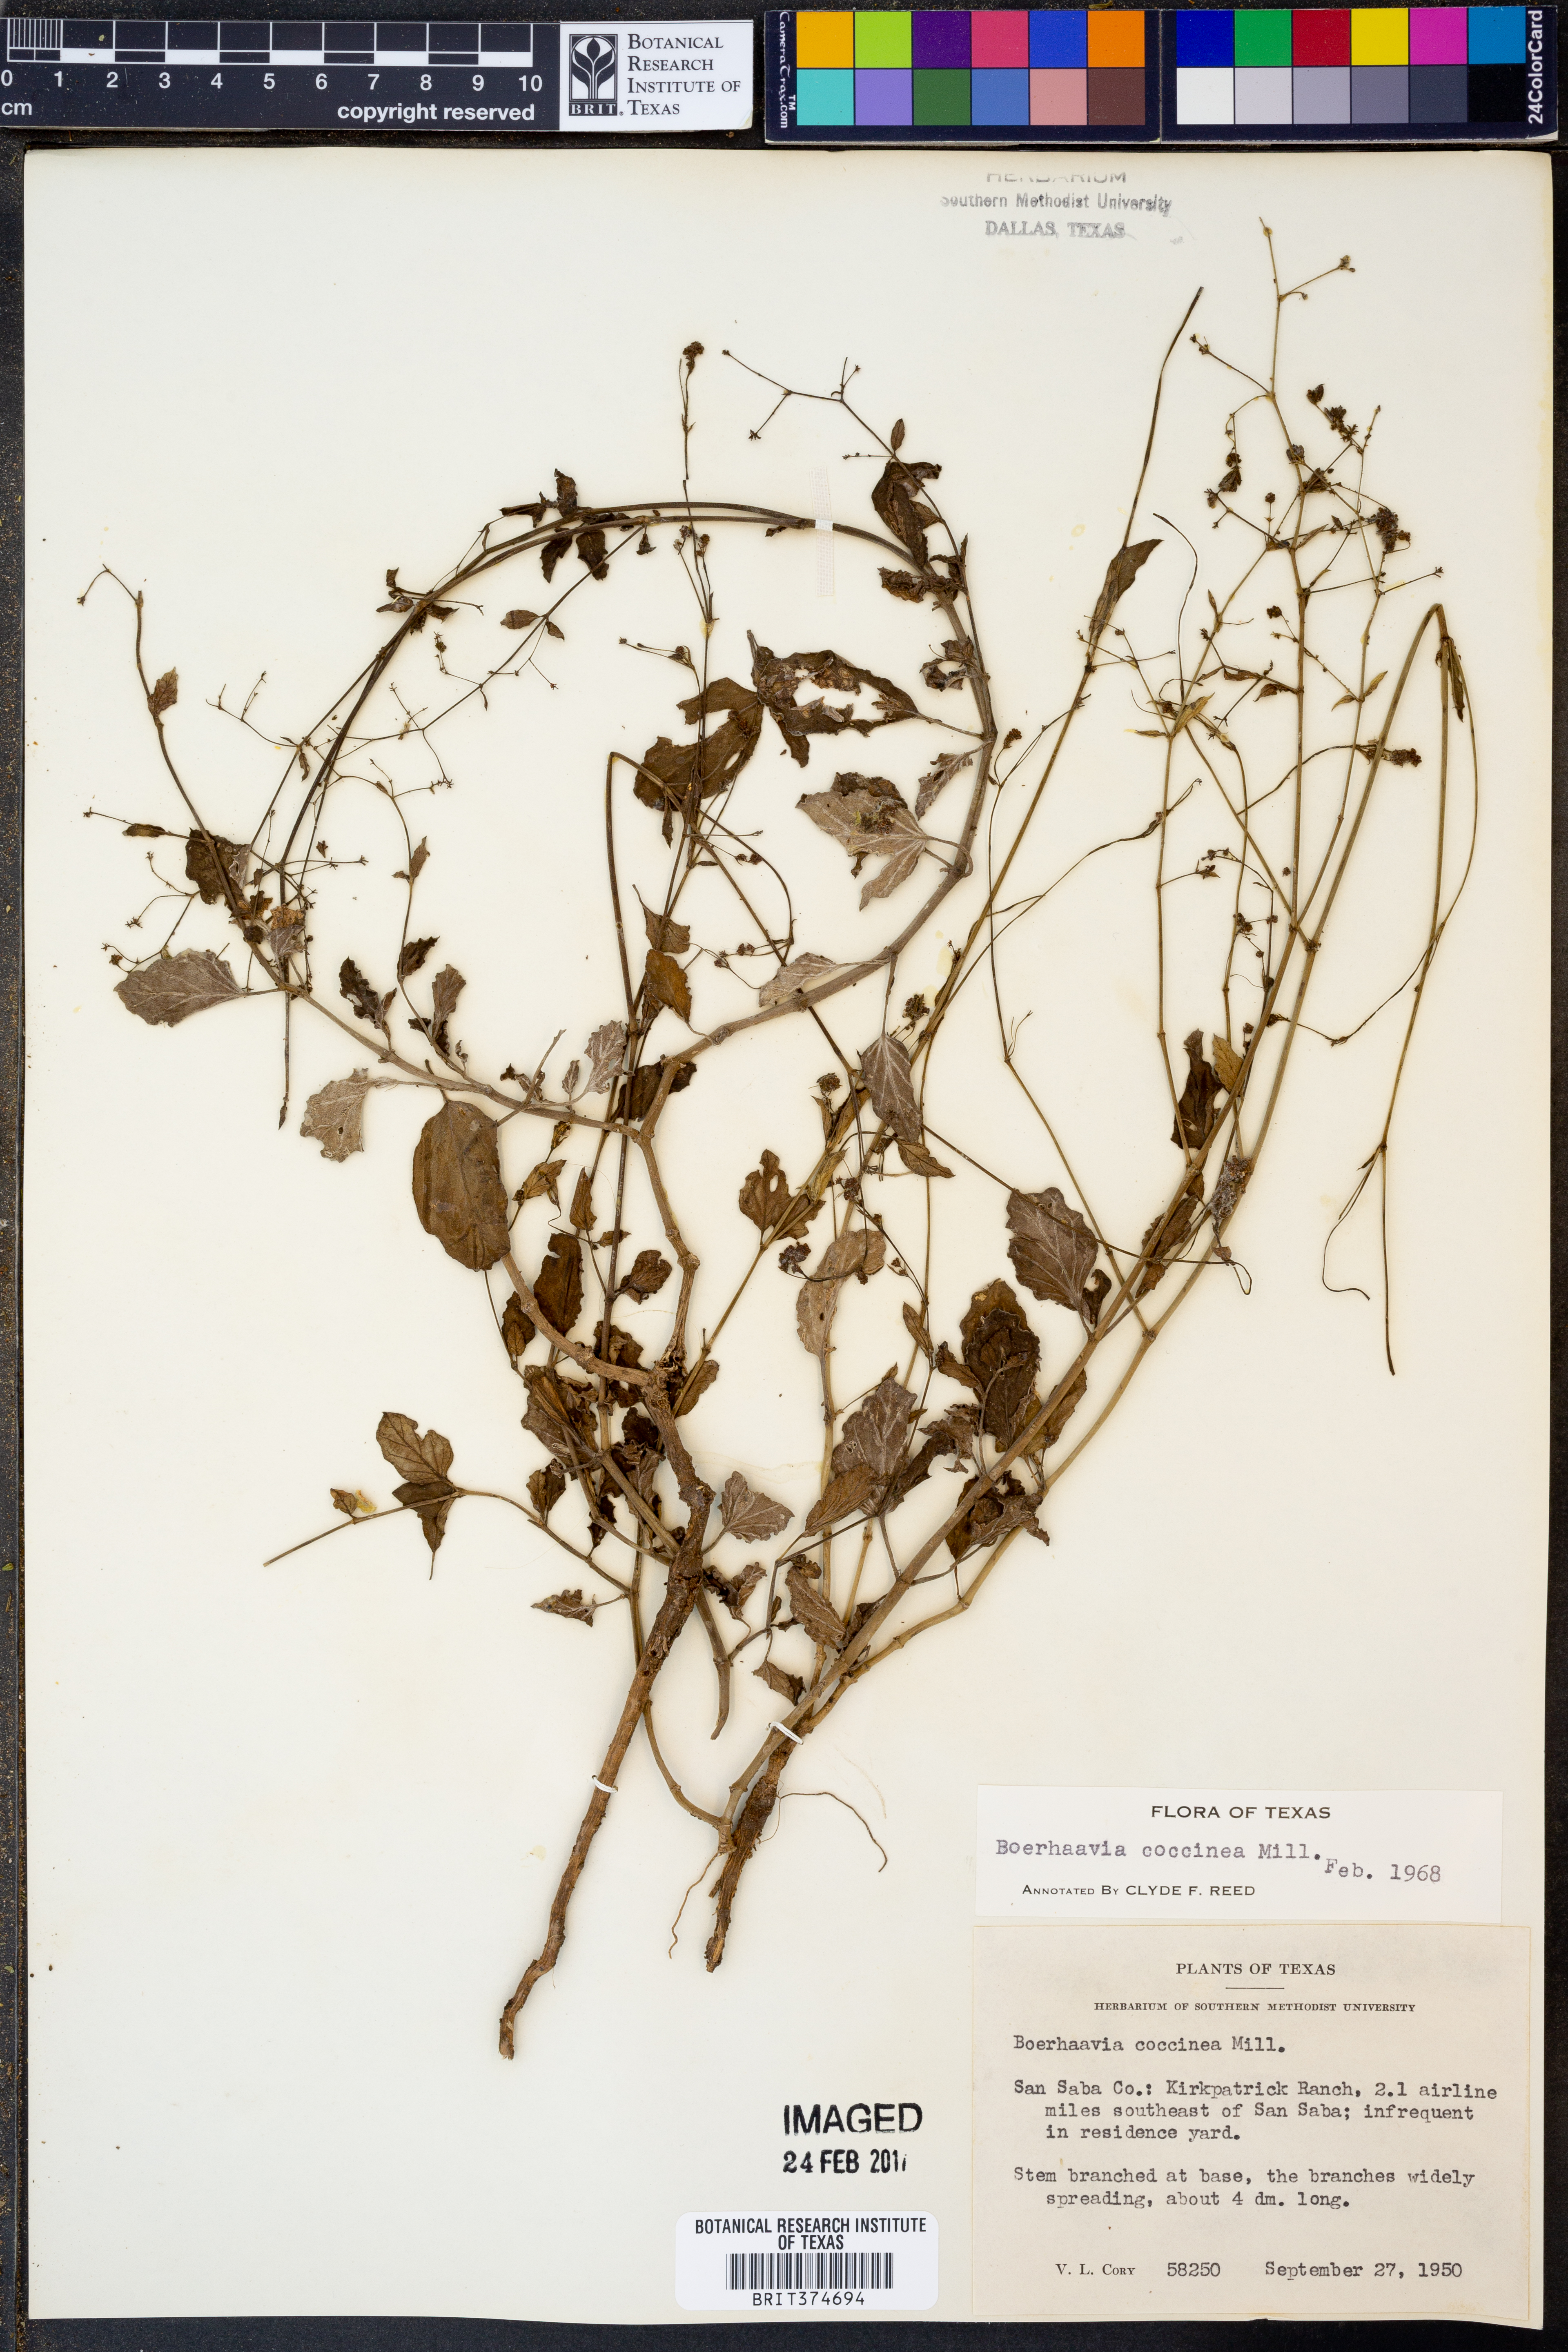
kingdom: Plantae
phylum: Tracheophyta
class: Magnoliopsida
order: Caryophyllales
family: Nyctaginaceae
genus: Boerhavia
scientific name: Boerhavia coccinea
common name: Scarlet spiderling
